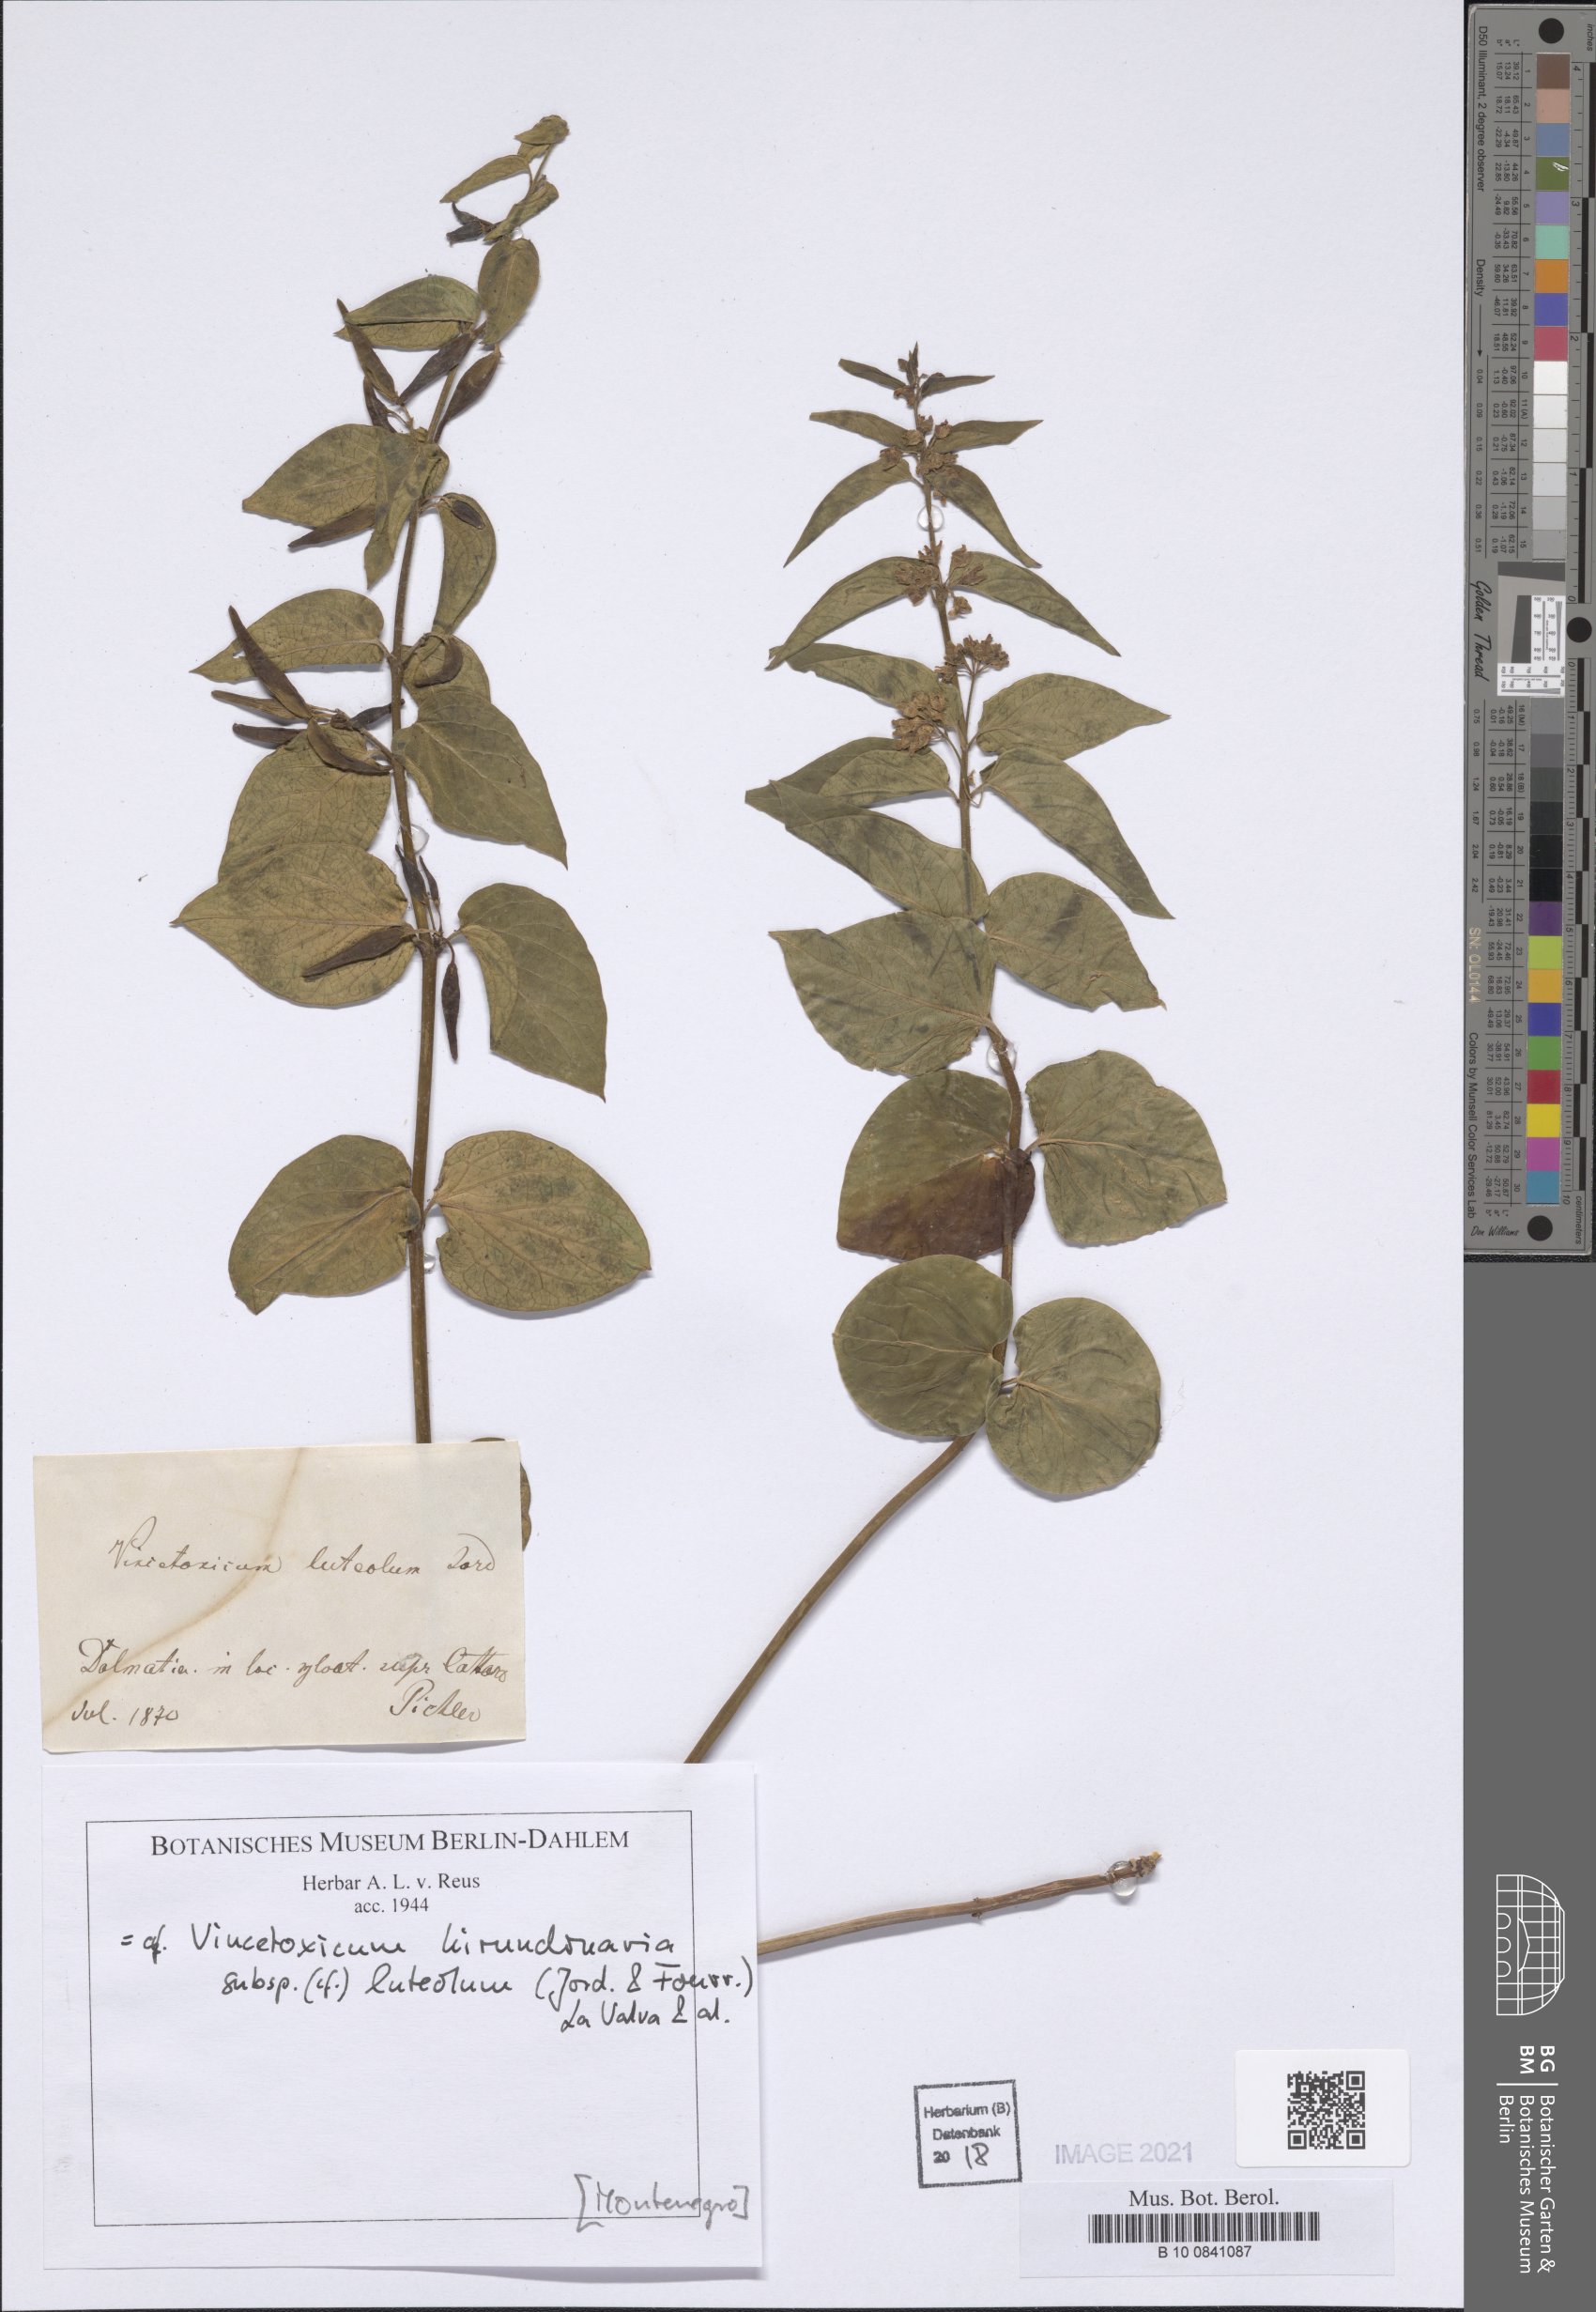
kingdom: Plantae
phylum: Tracheophyta
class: Magnoliopsida
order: Gentianales
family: Apocynaceae
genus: Vincetoxicum
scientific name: Vincetoxicum hirundinaria
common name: White swallowwort
